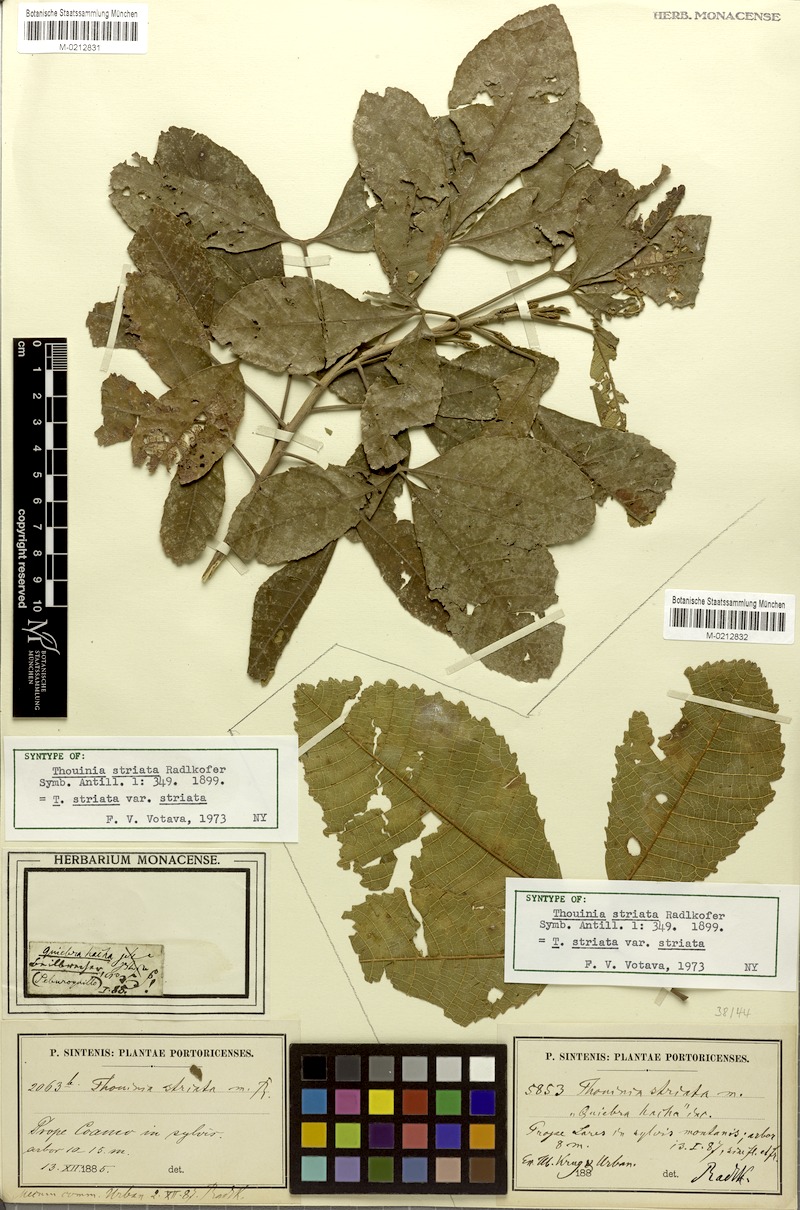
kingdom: Plantae
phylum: Tracheophyta
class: Magnoliopsida
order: Sapindales
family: Sapindaceae
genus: Thouinia
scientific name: Thouinia striata
